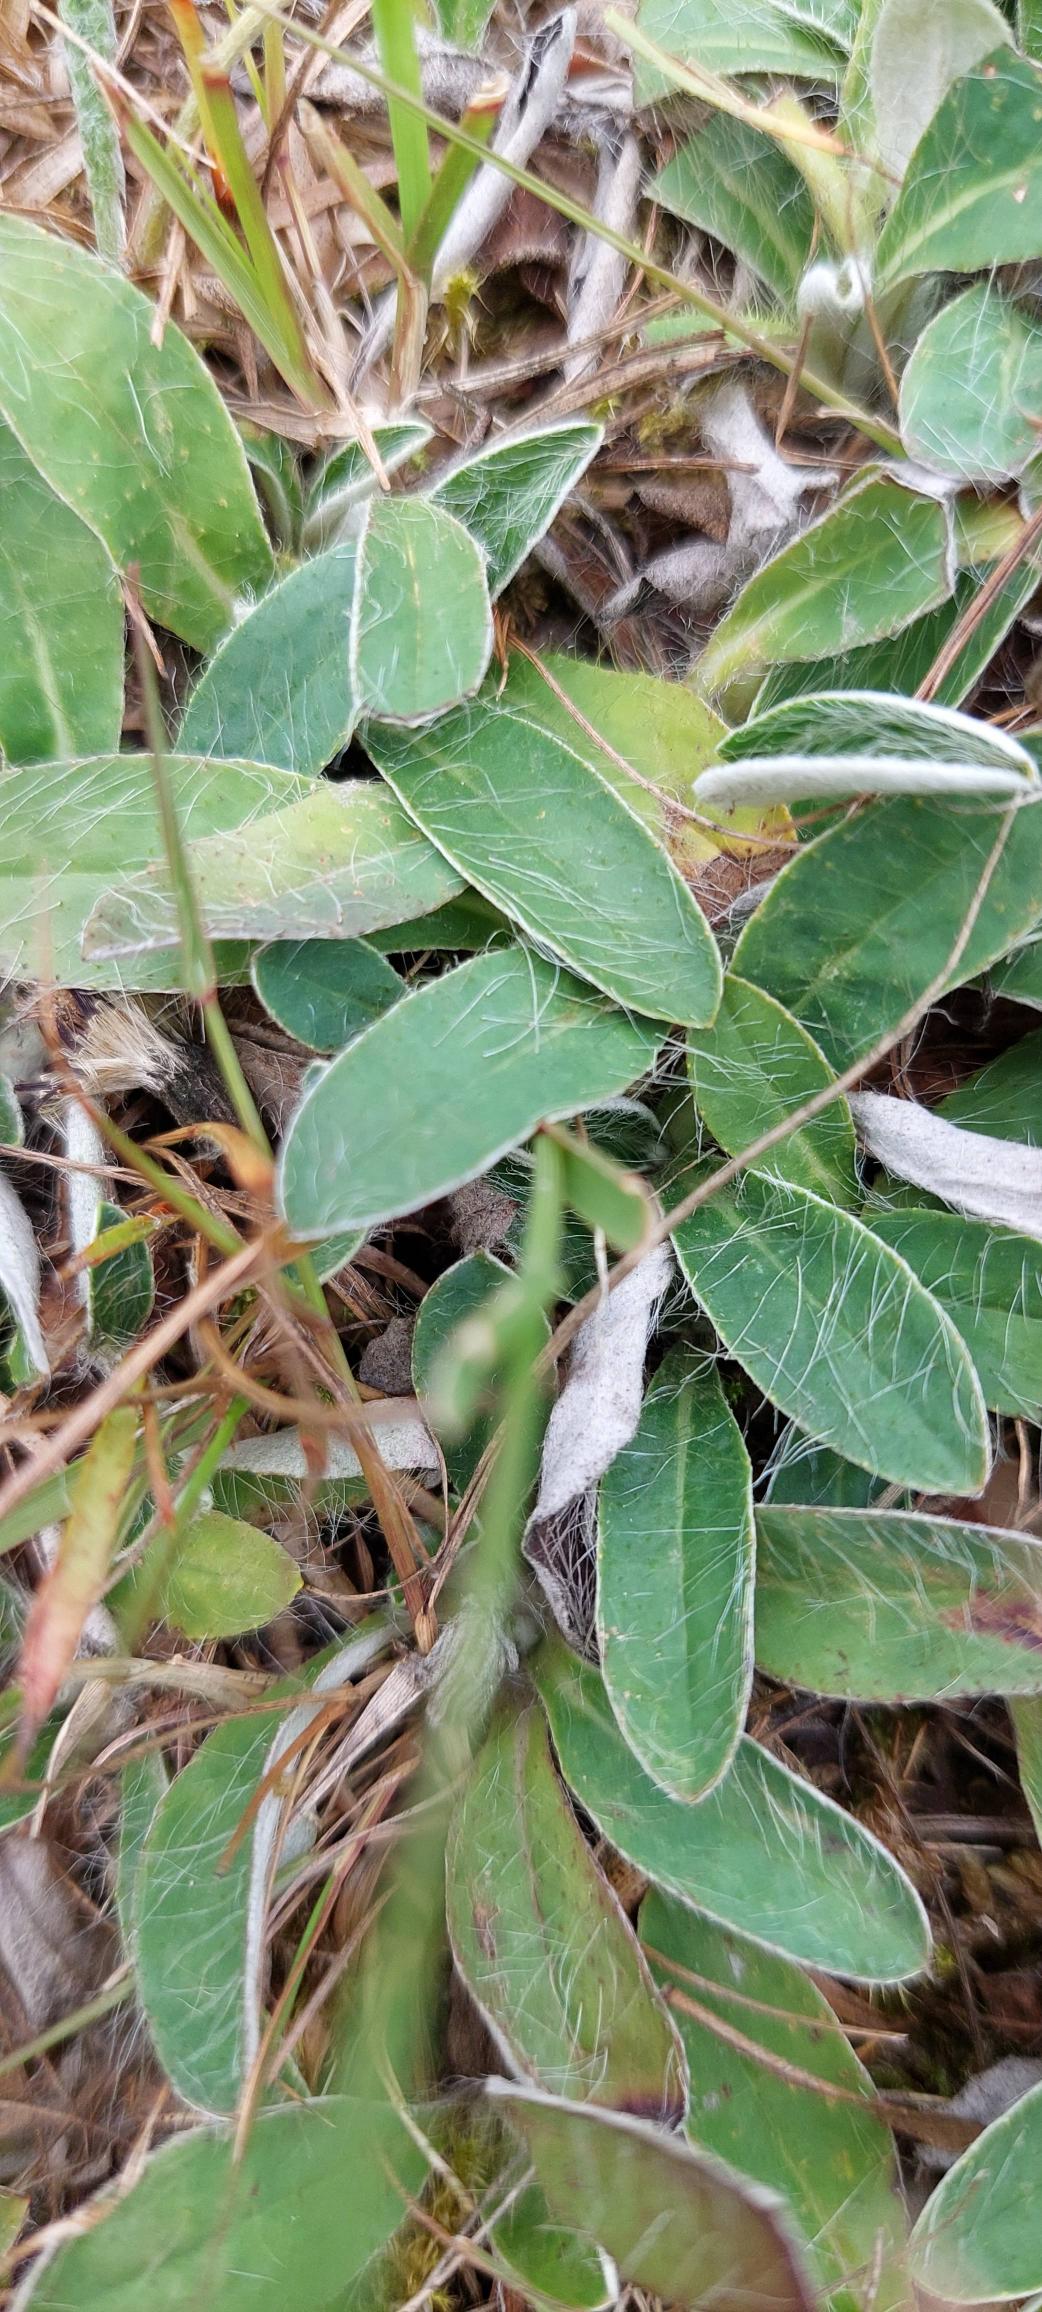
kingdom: Plantae
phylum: Tracheophyta
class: Magnoliopsida
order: Asterales
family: Asteraceae
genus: Pilosella
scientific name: Pilosella officinarum
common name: Håret høgeurt
